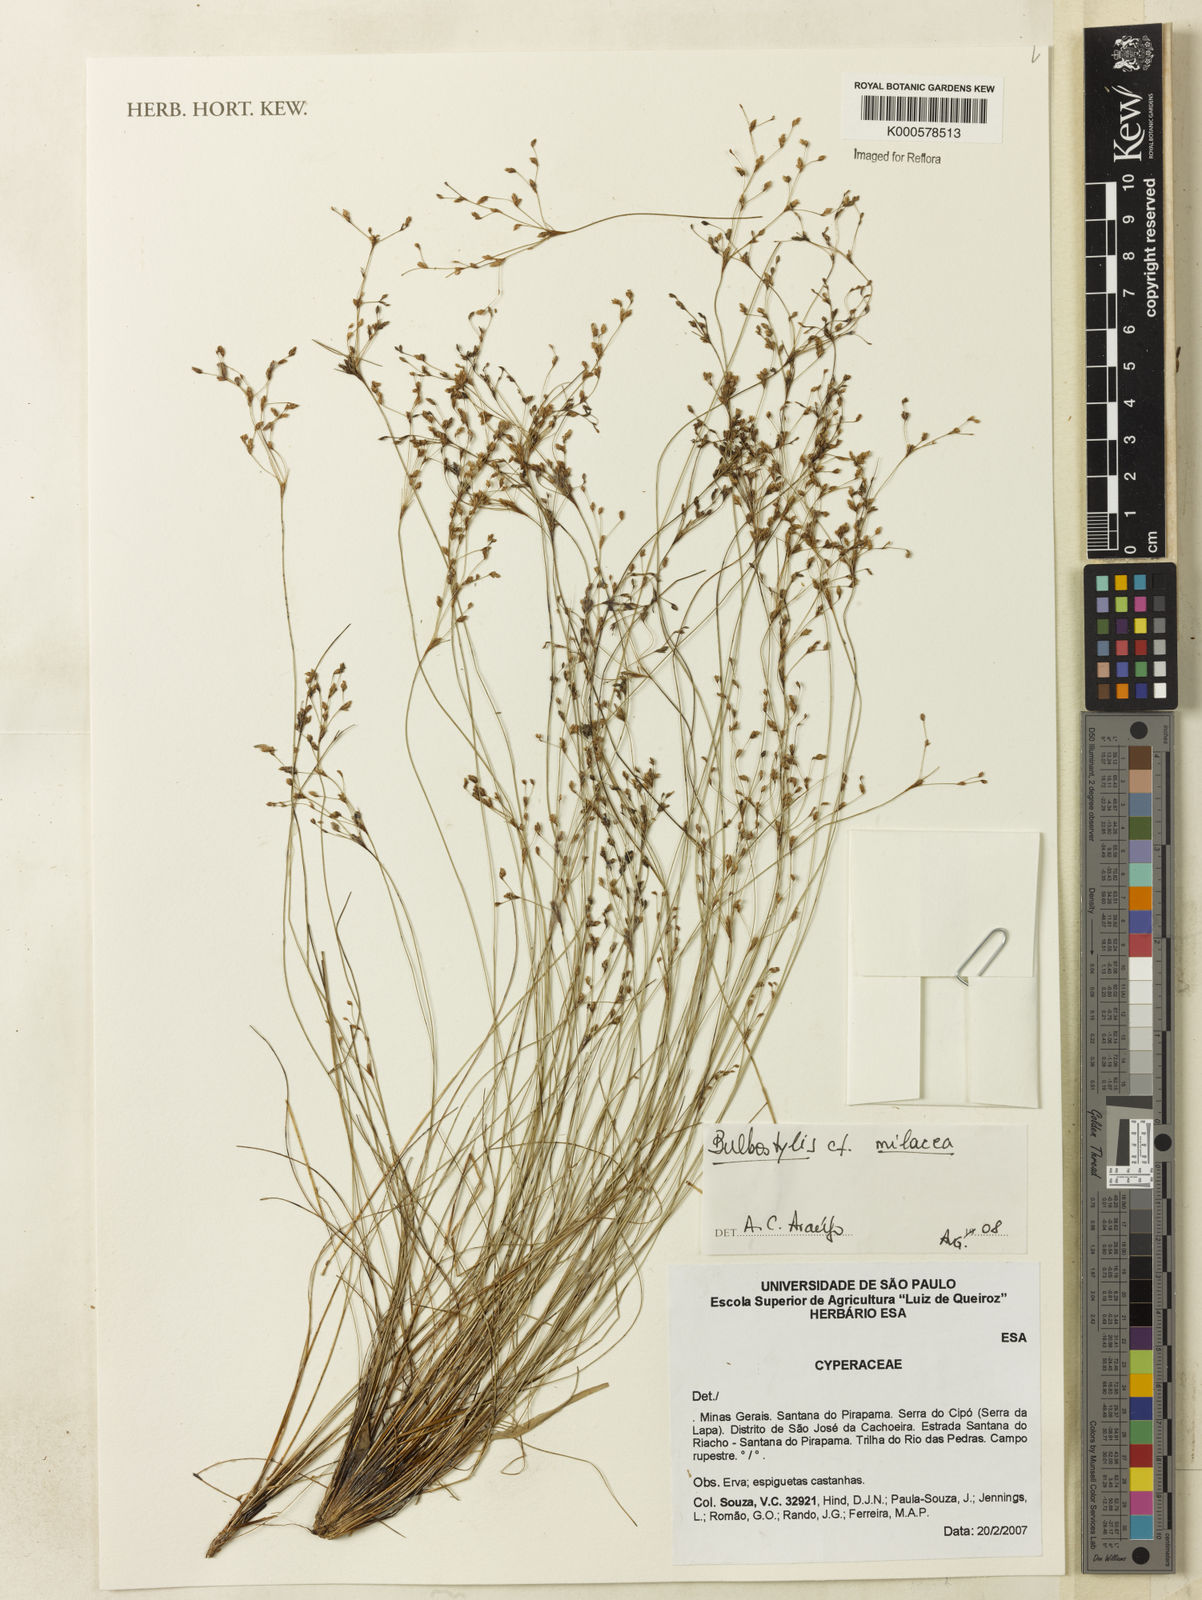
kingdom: Plantae
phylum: Tracheophyta
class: Liliopsida
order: Poales
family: Cyperaceae
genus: Bulbostylis
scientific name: Bulbostylis
